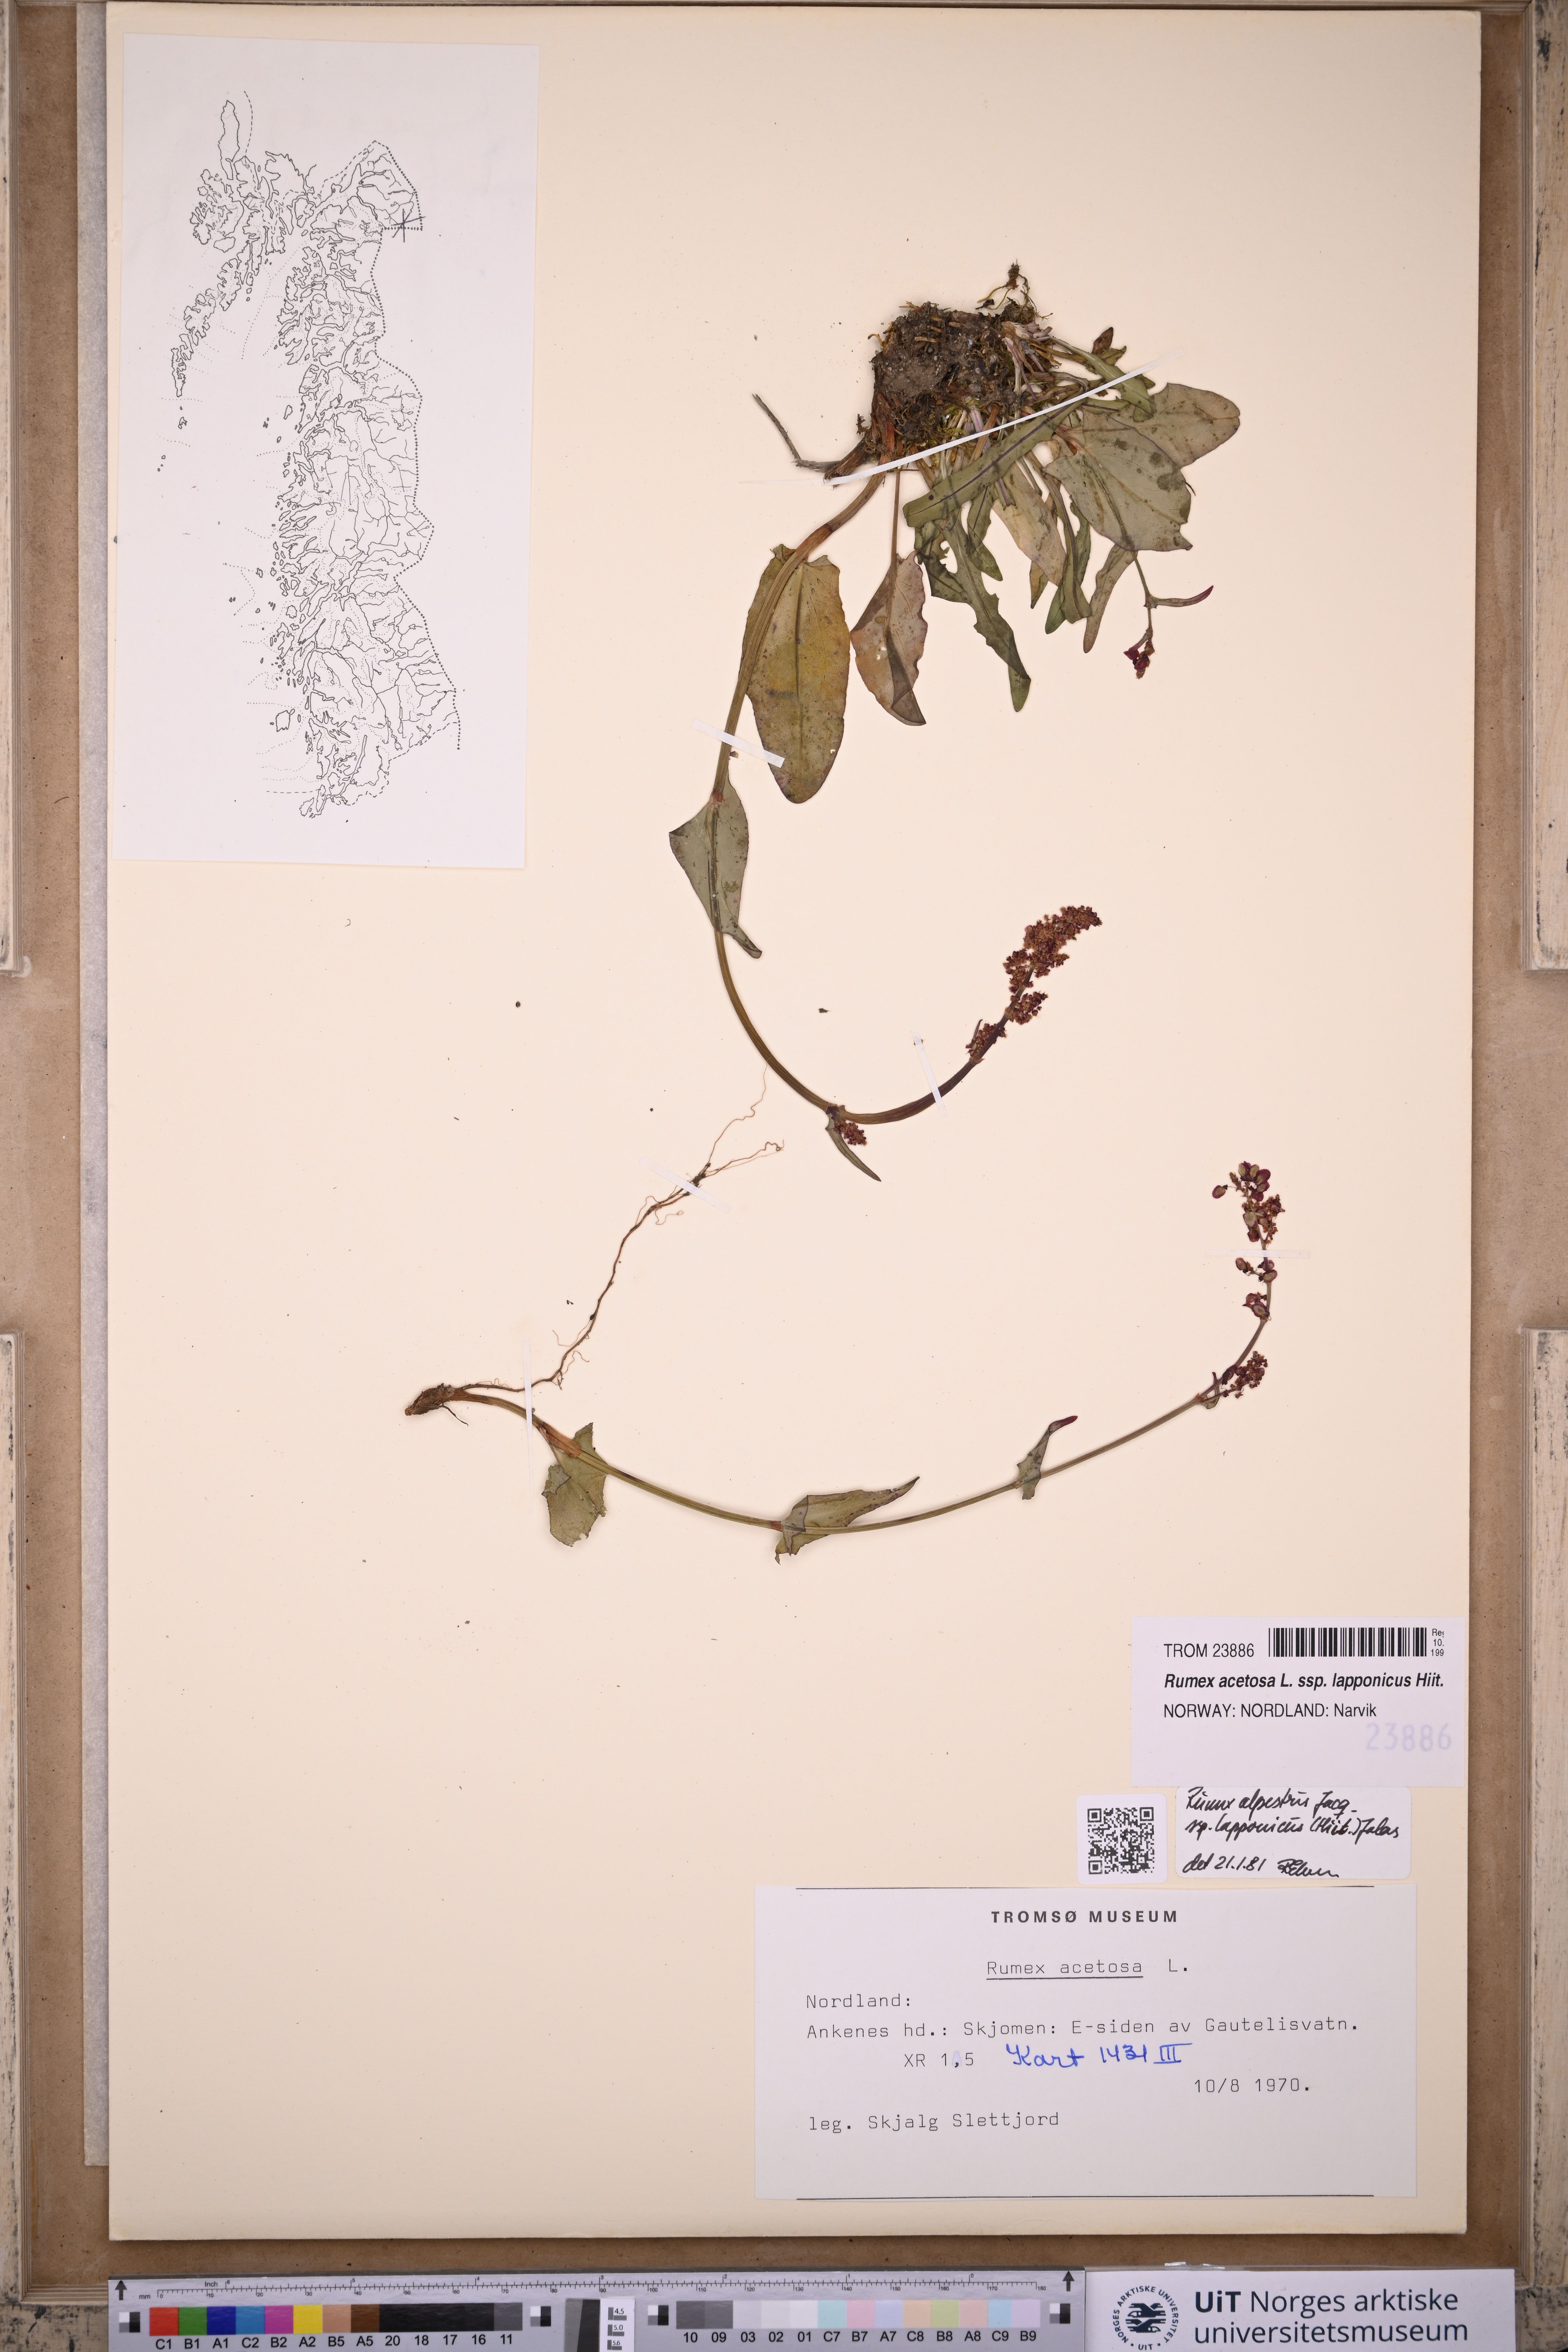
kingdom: Plantae
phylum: Tracheophyta
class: Magnoliopsida
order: Caryophyllales
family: Polygonaceae
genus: Rumex
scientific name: Rumex lapponicus
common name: Lapland mountain sorrel
